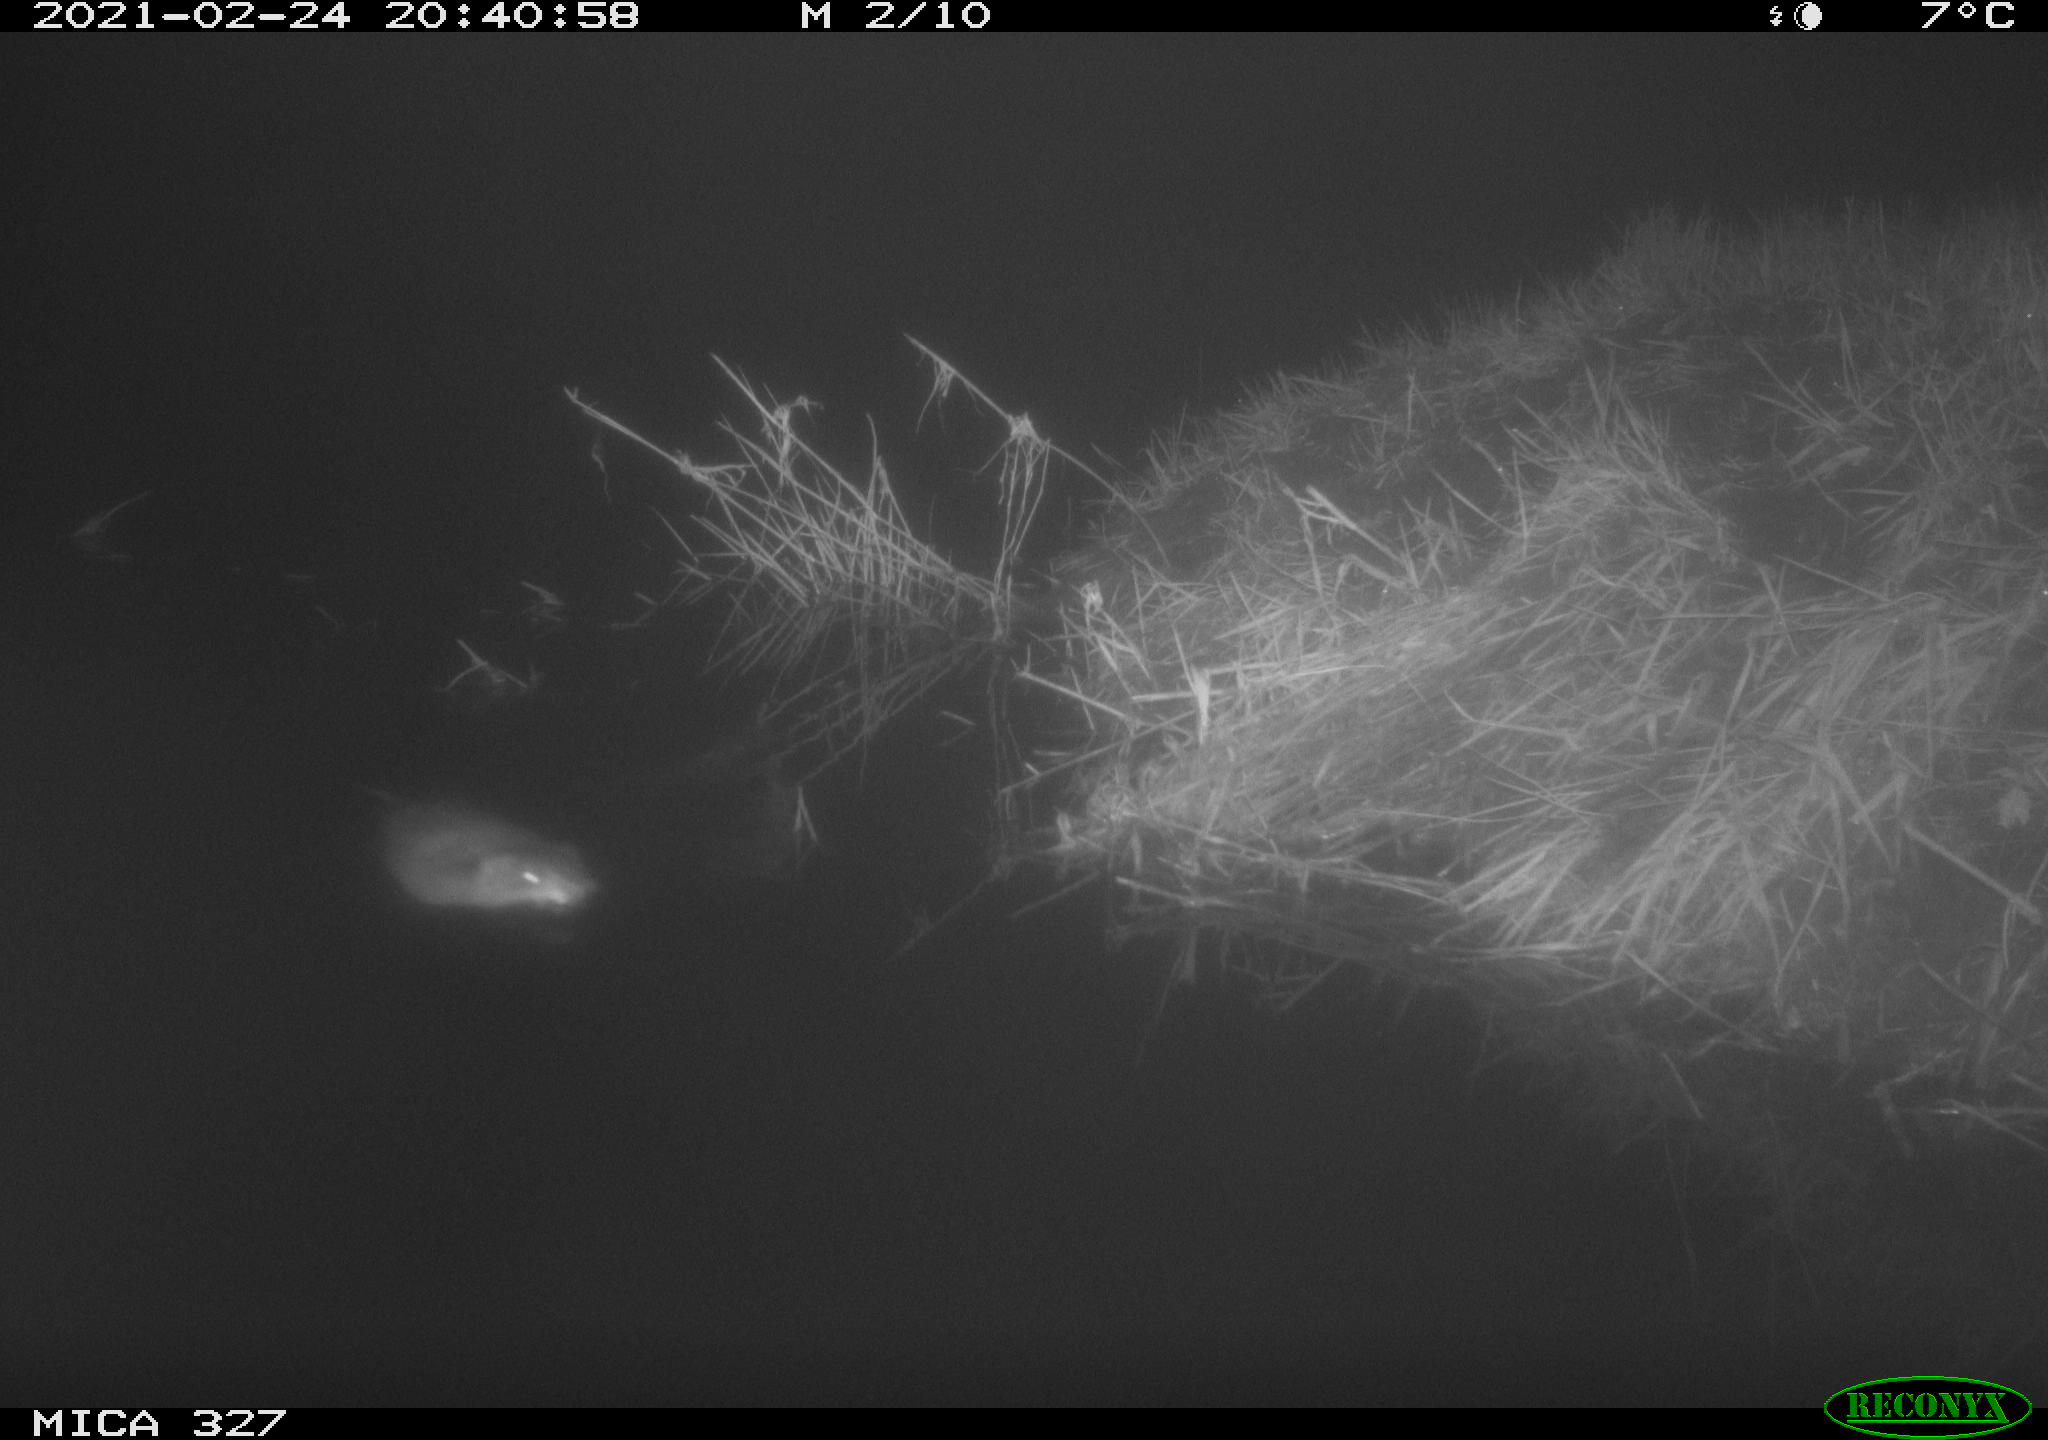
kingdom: Animalia
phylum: Chordata
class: Mammalia
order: Rodentia
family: Cricetidae
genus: Ondatra
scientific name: Ondatra zibethicus
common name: Muskrat
